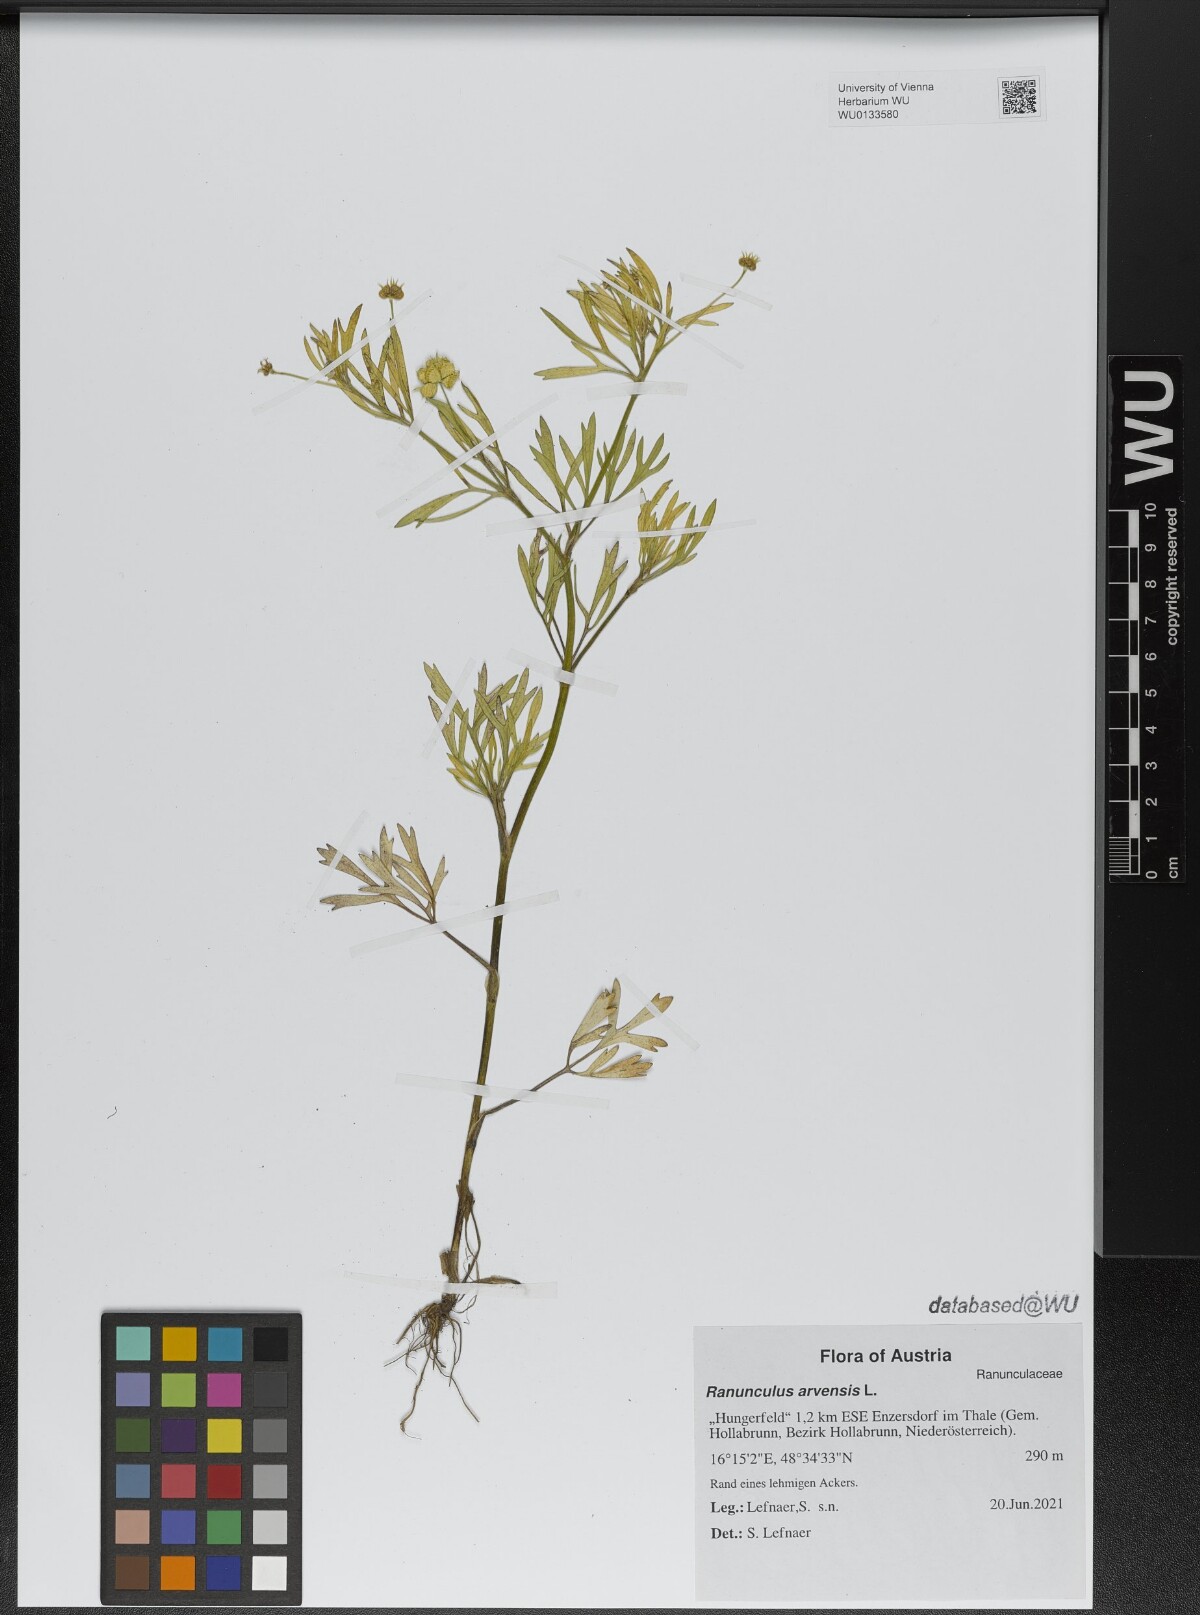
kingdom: Plantae
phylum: Tracheophyta
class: Magnoliopsida
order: Ranunculales
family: Ranunculaceae
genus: Ranunculus
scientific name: Ranunculus arvensis
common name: Corn buttercup
